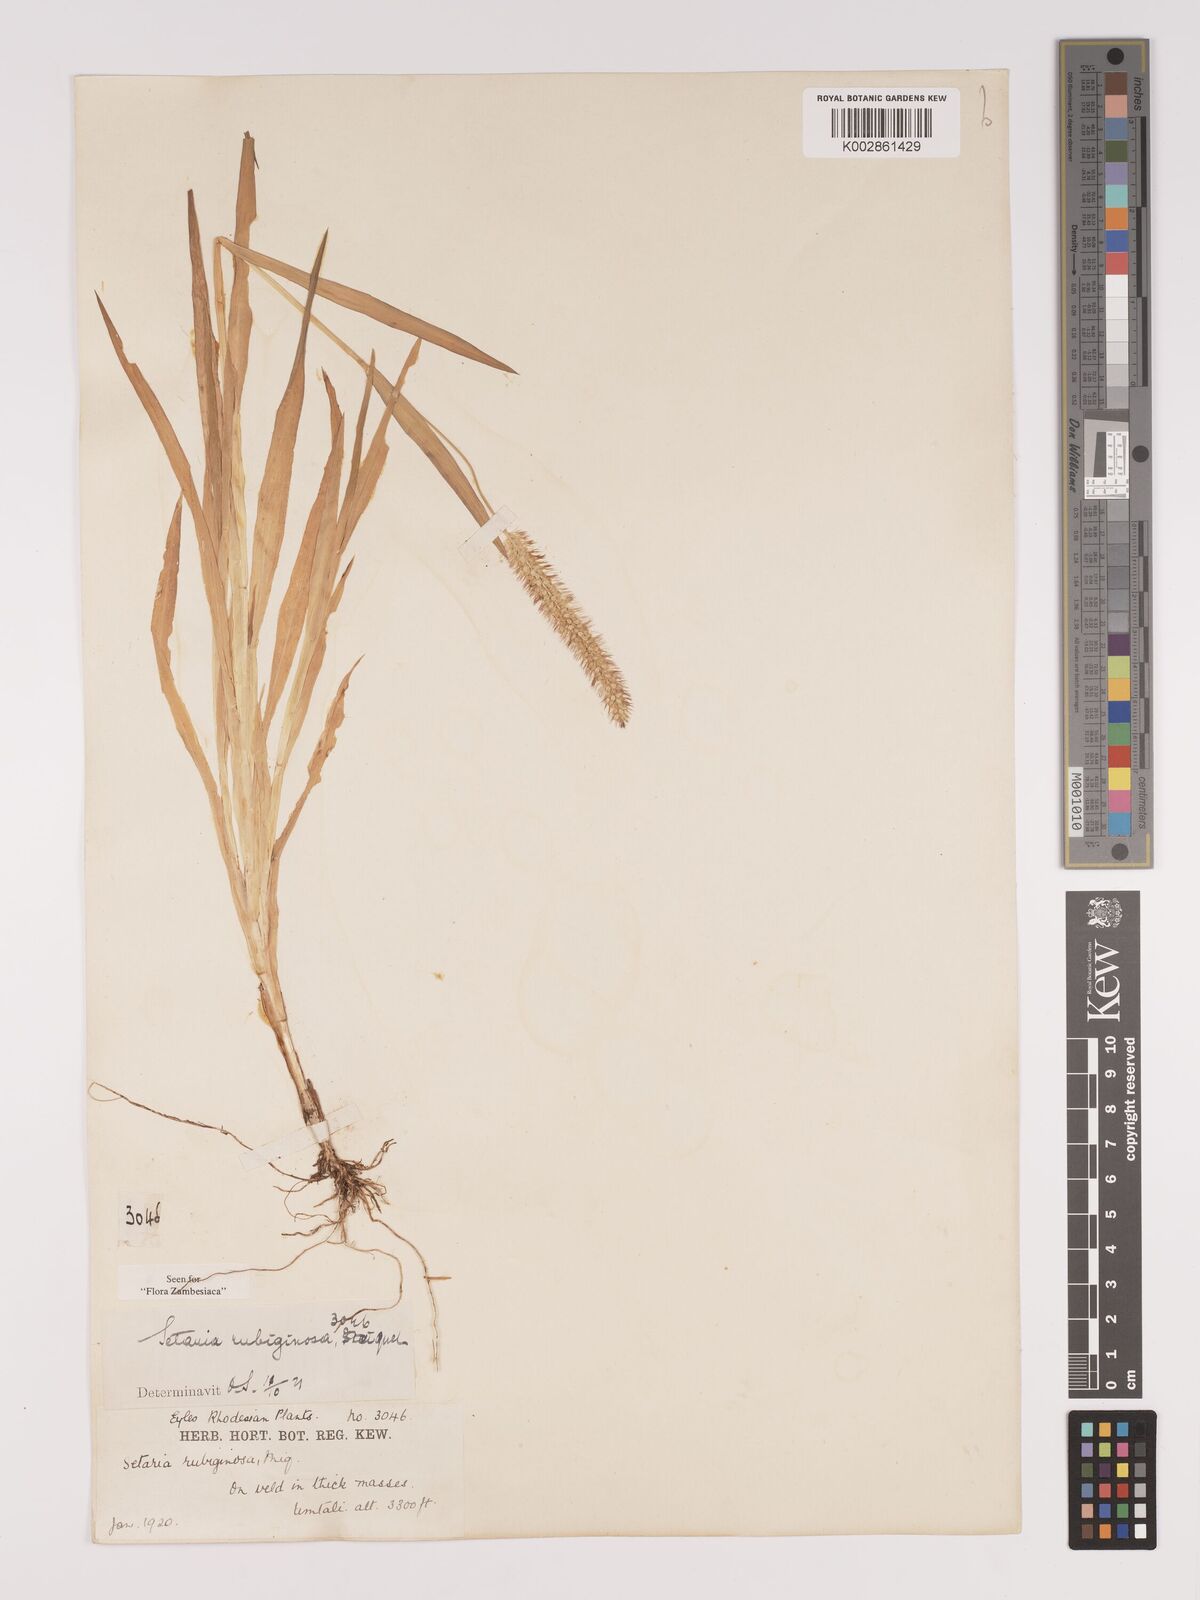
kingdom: Plantae
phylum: Tracheophyta
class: Liliopsida
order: Poales
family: Poaceae
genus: Setaria
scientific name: Setaria pumila
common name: Yellow bristle-grass
